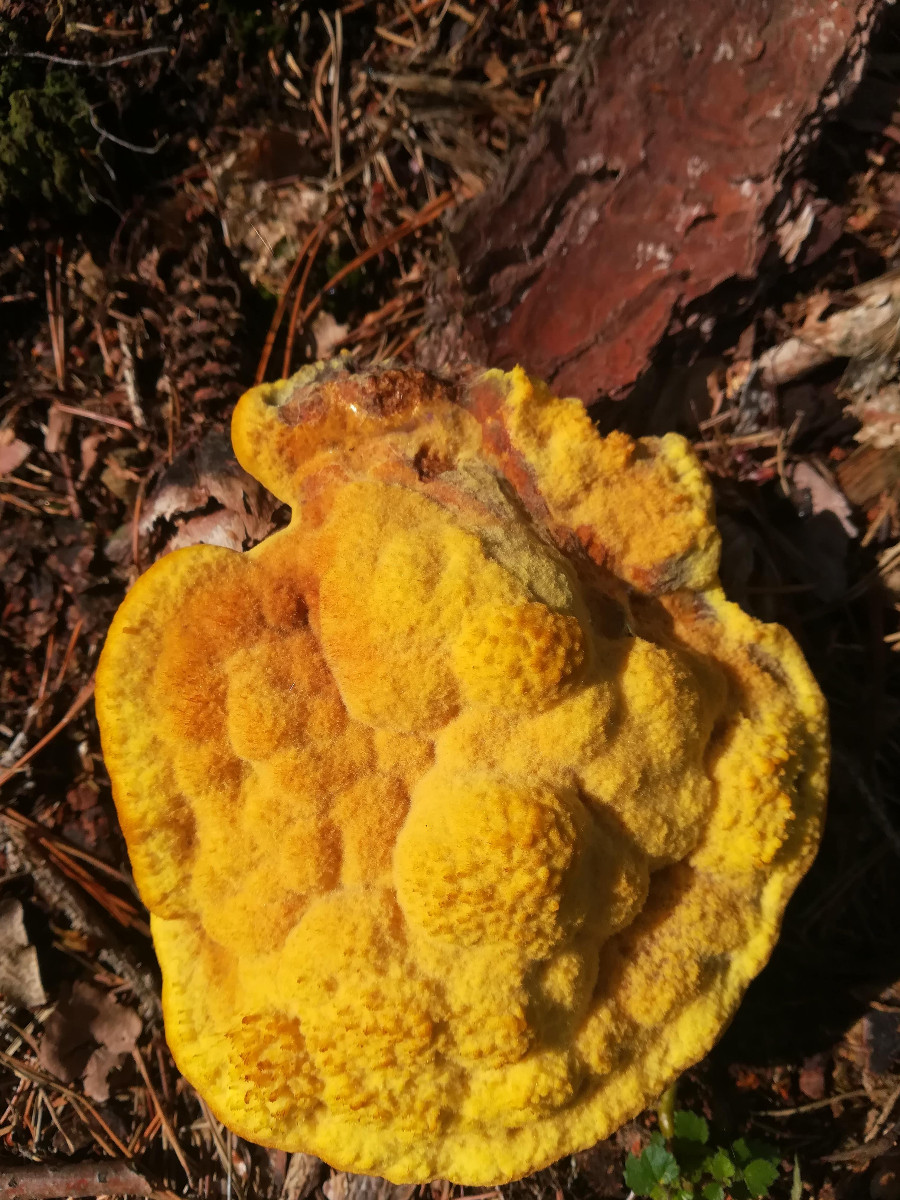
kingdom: Fungi
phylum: Basidiomycota
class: Agaricomycetes
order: Polyporales
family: Laetiporaceae
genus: Phaeolus
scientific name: Phaeolus schweinitzii
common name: brunporesvamp
